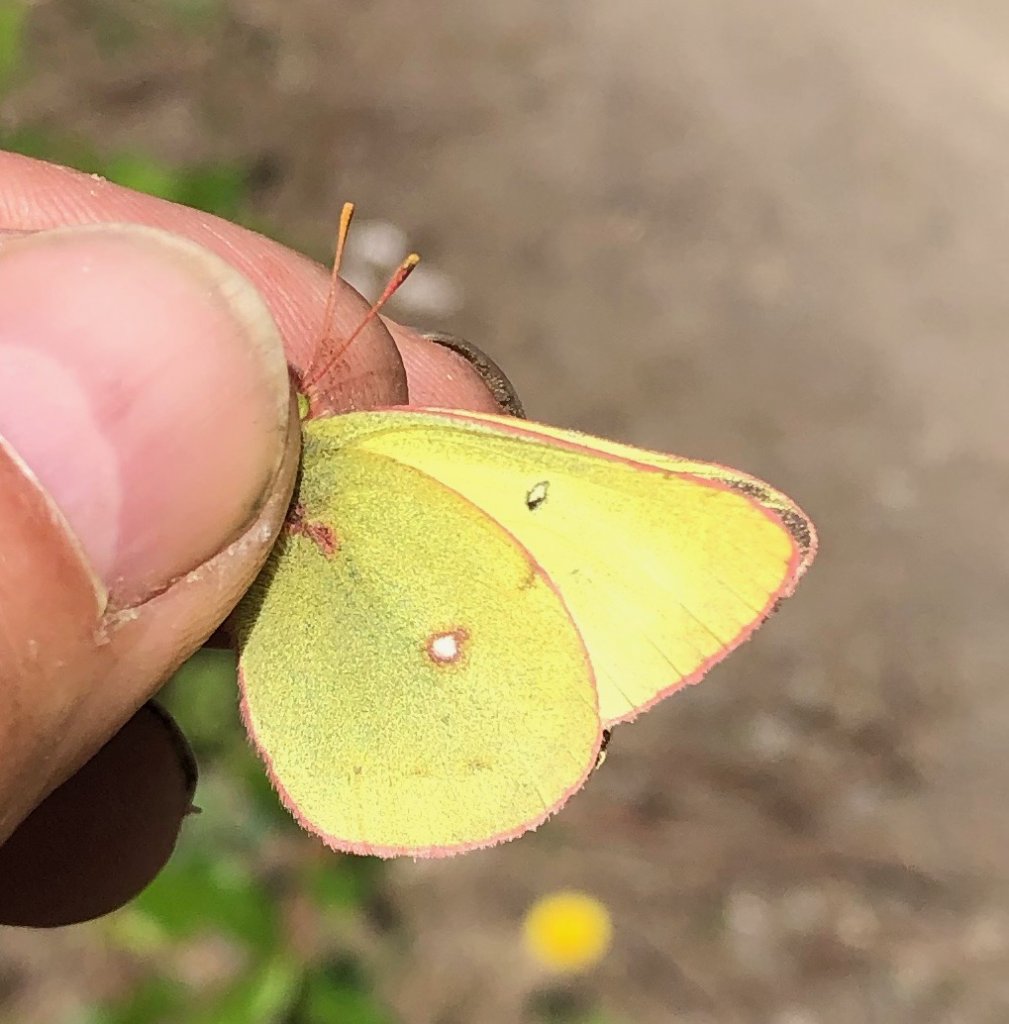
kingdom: Animalia
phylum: Arthropoda
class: Insecta
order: Lepidoptera
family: Pieridae
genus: Colias
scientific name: Colias philodice
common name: Clouded Sulphur
